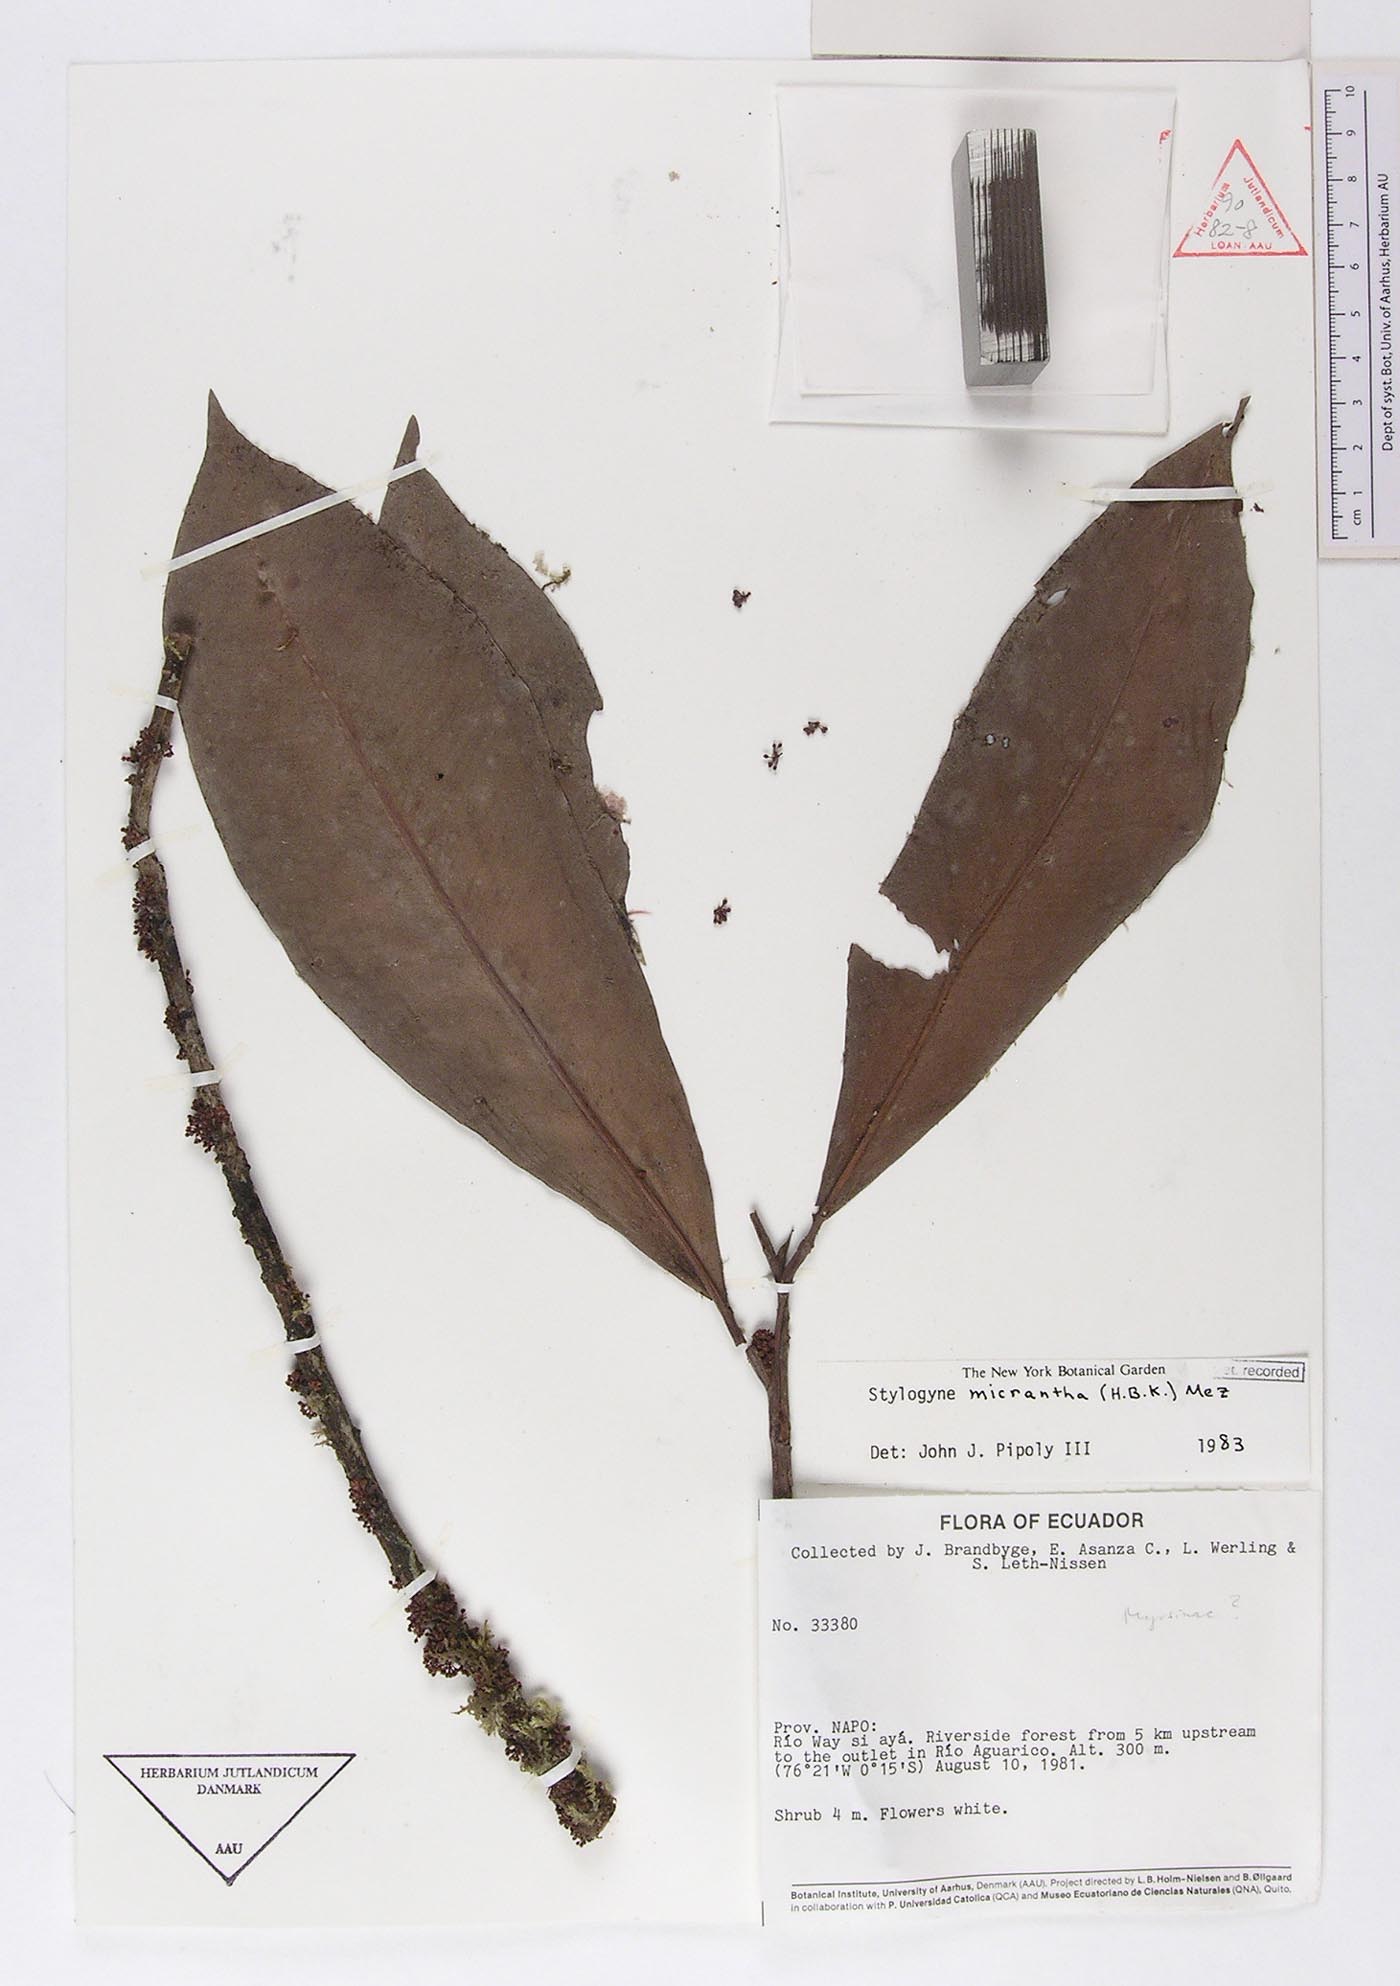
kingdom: Plantae
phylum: Tracheophyta
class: Magnoliopsida
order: Ericales
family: Primulaceae
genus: Stylogyne
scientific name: Stylogyne micrantha
